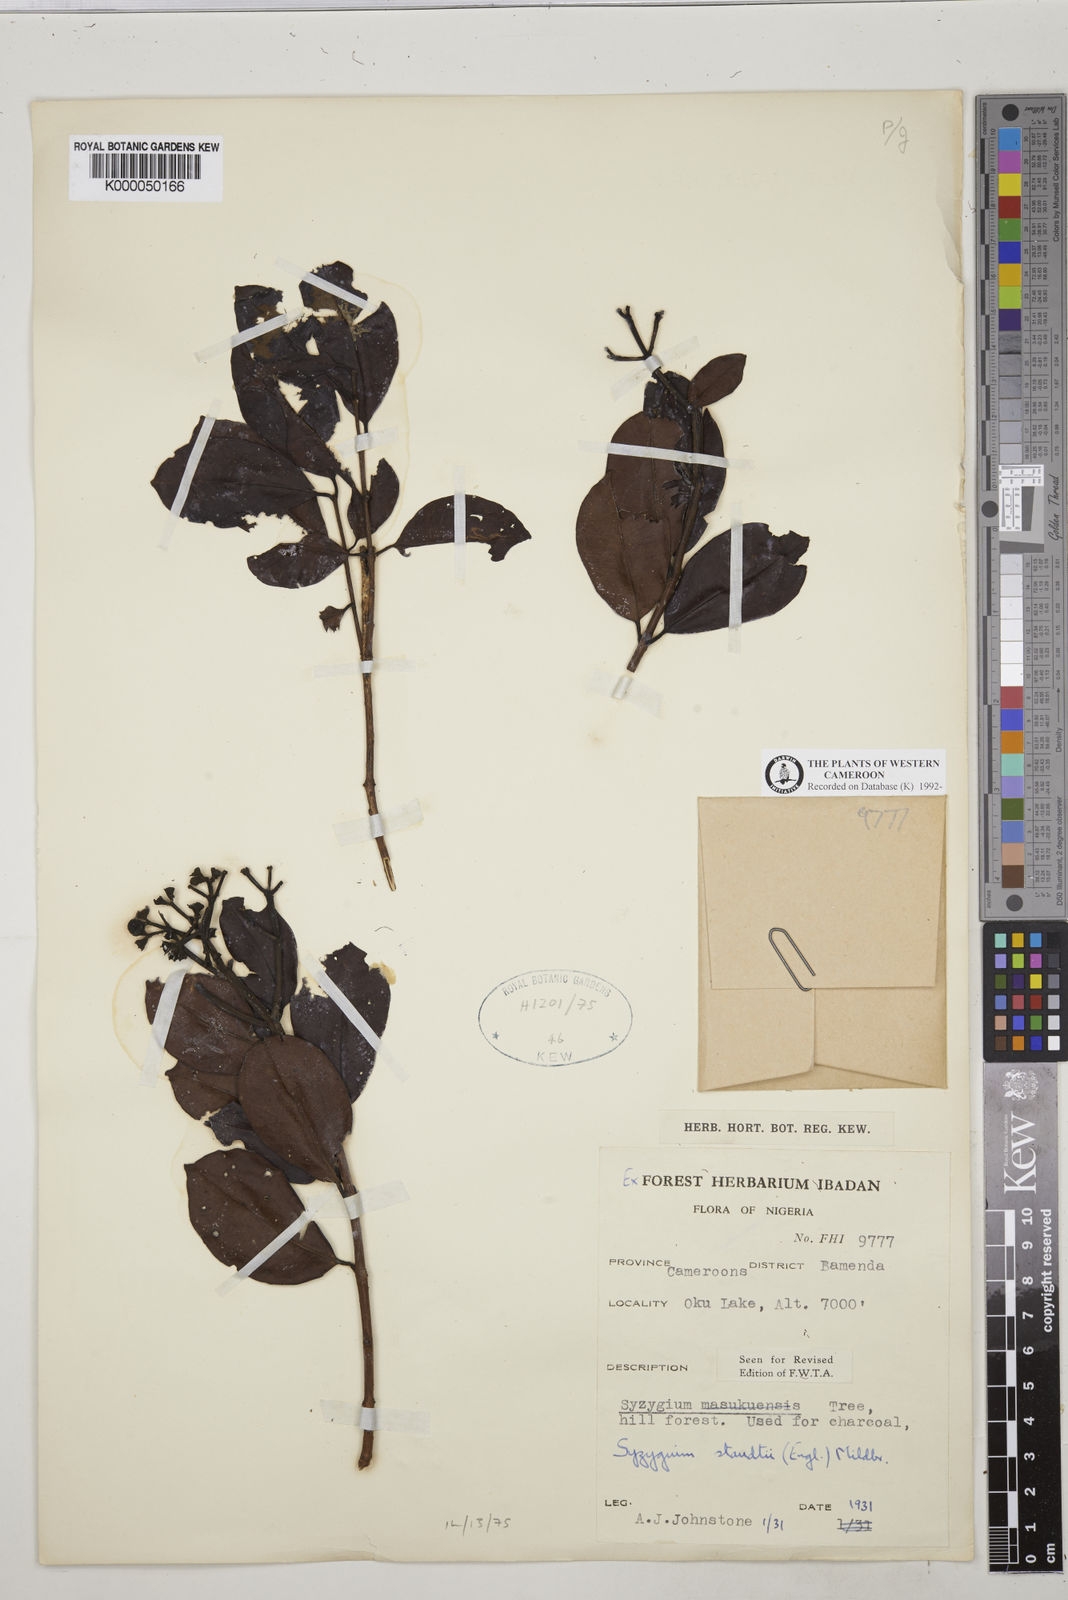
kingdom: Plantae
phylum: Tracheophyta
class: Magnoliopsida
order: Myrtales
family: Myrtaceae
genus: Syzygium
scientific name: Syzygium staudtii
